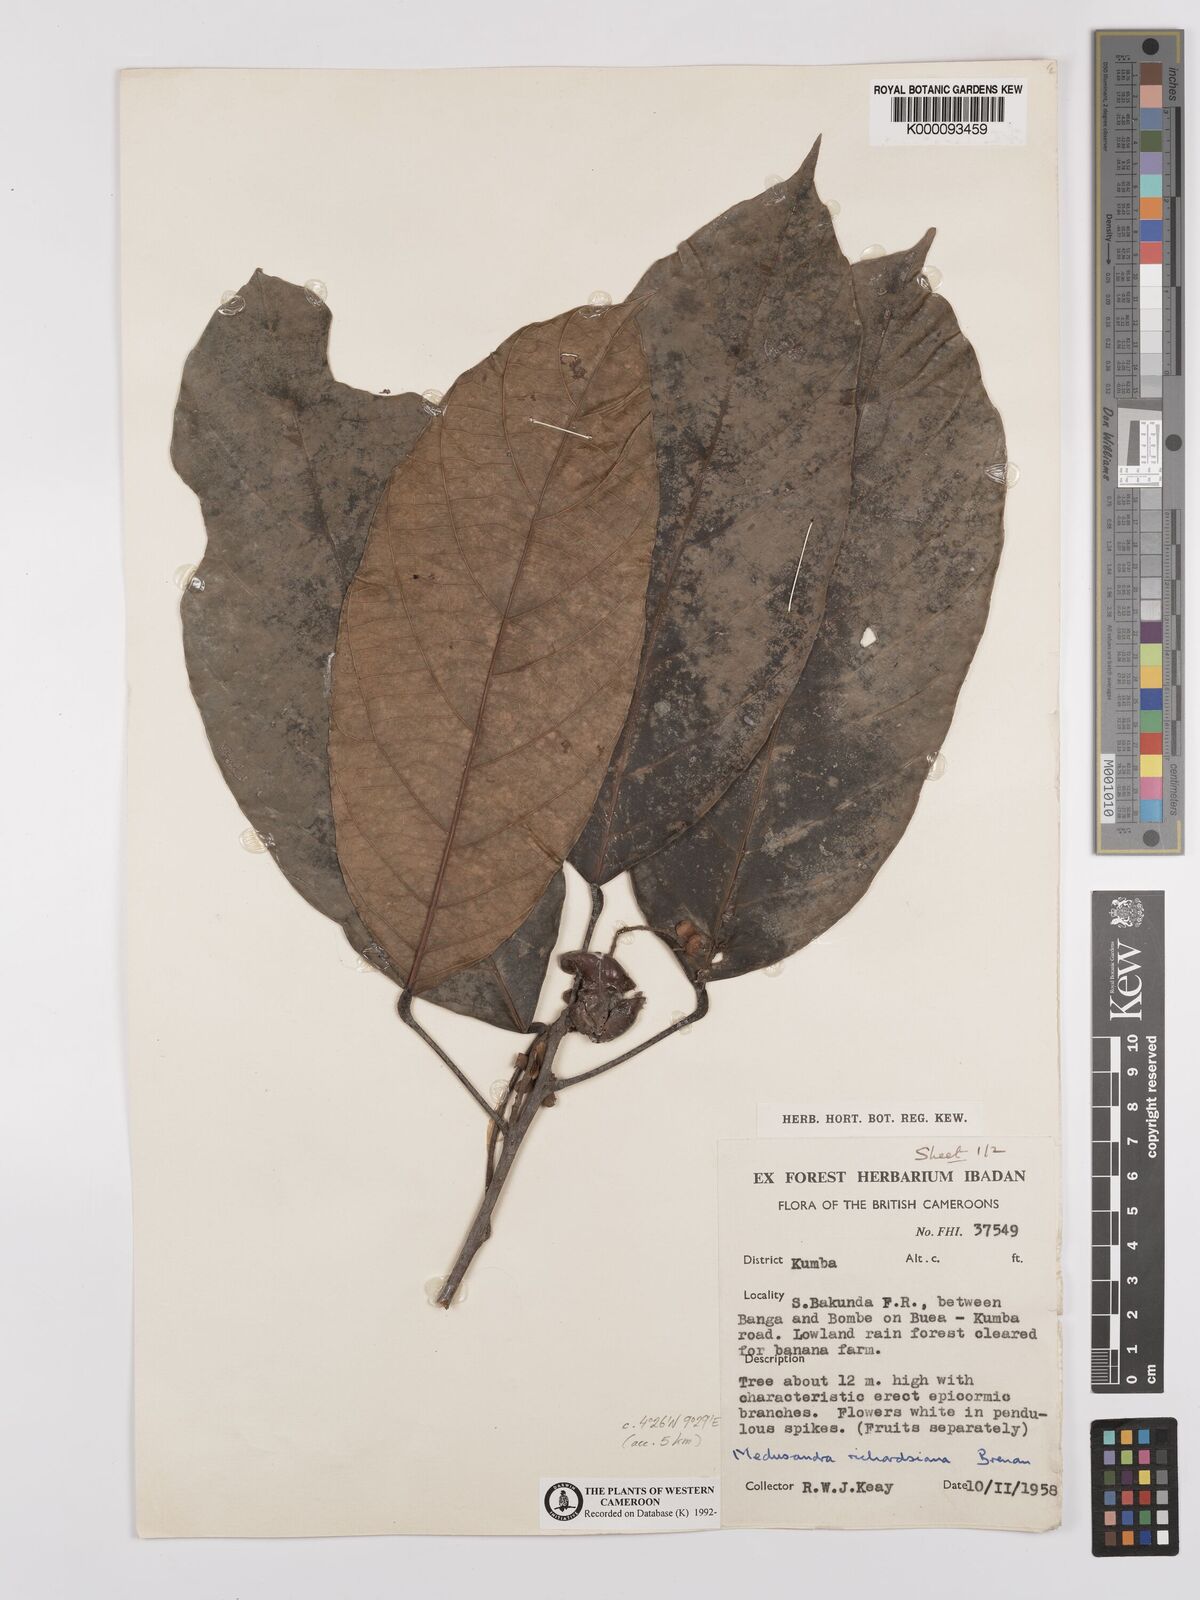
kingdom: Plantae
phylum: Tracheophyta
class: Magnoliopsida
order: Saxifragales
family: Peridiscaceae
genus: Medusandra
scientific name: Medusandra richardsiana
